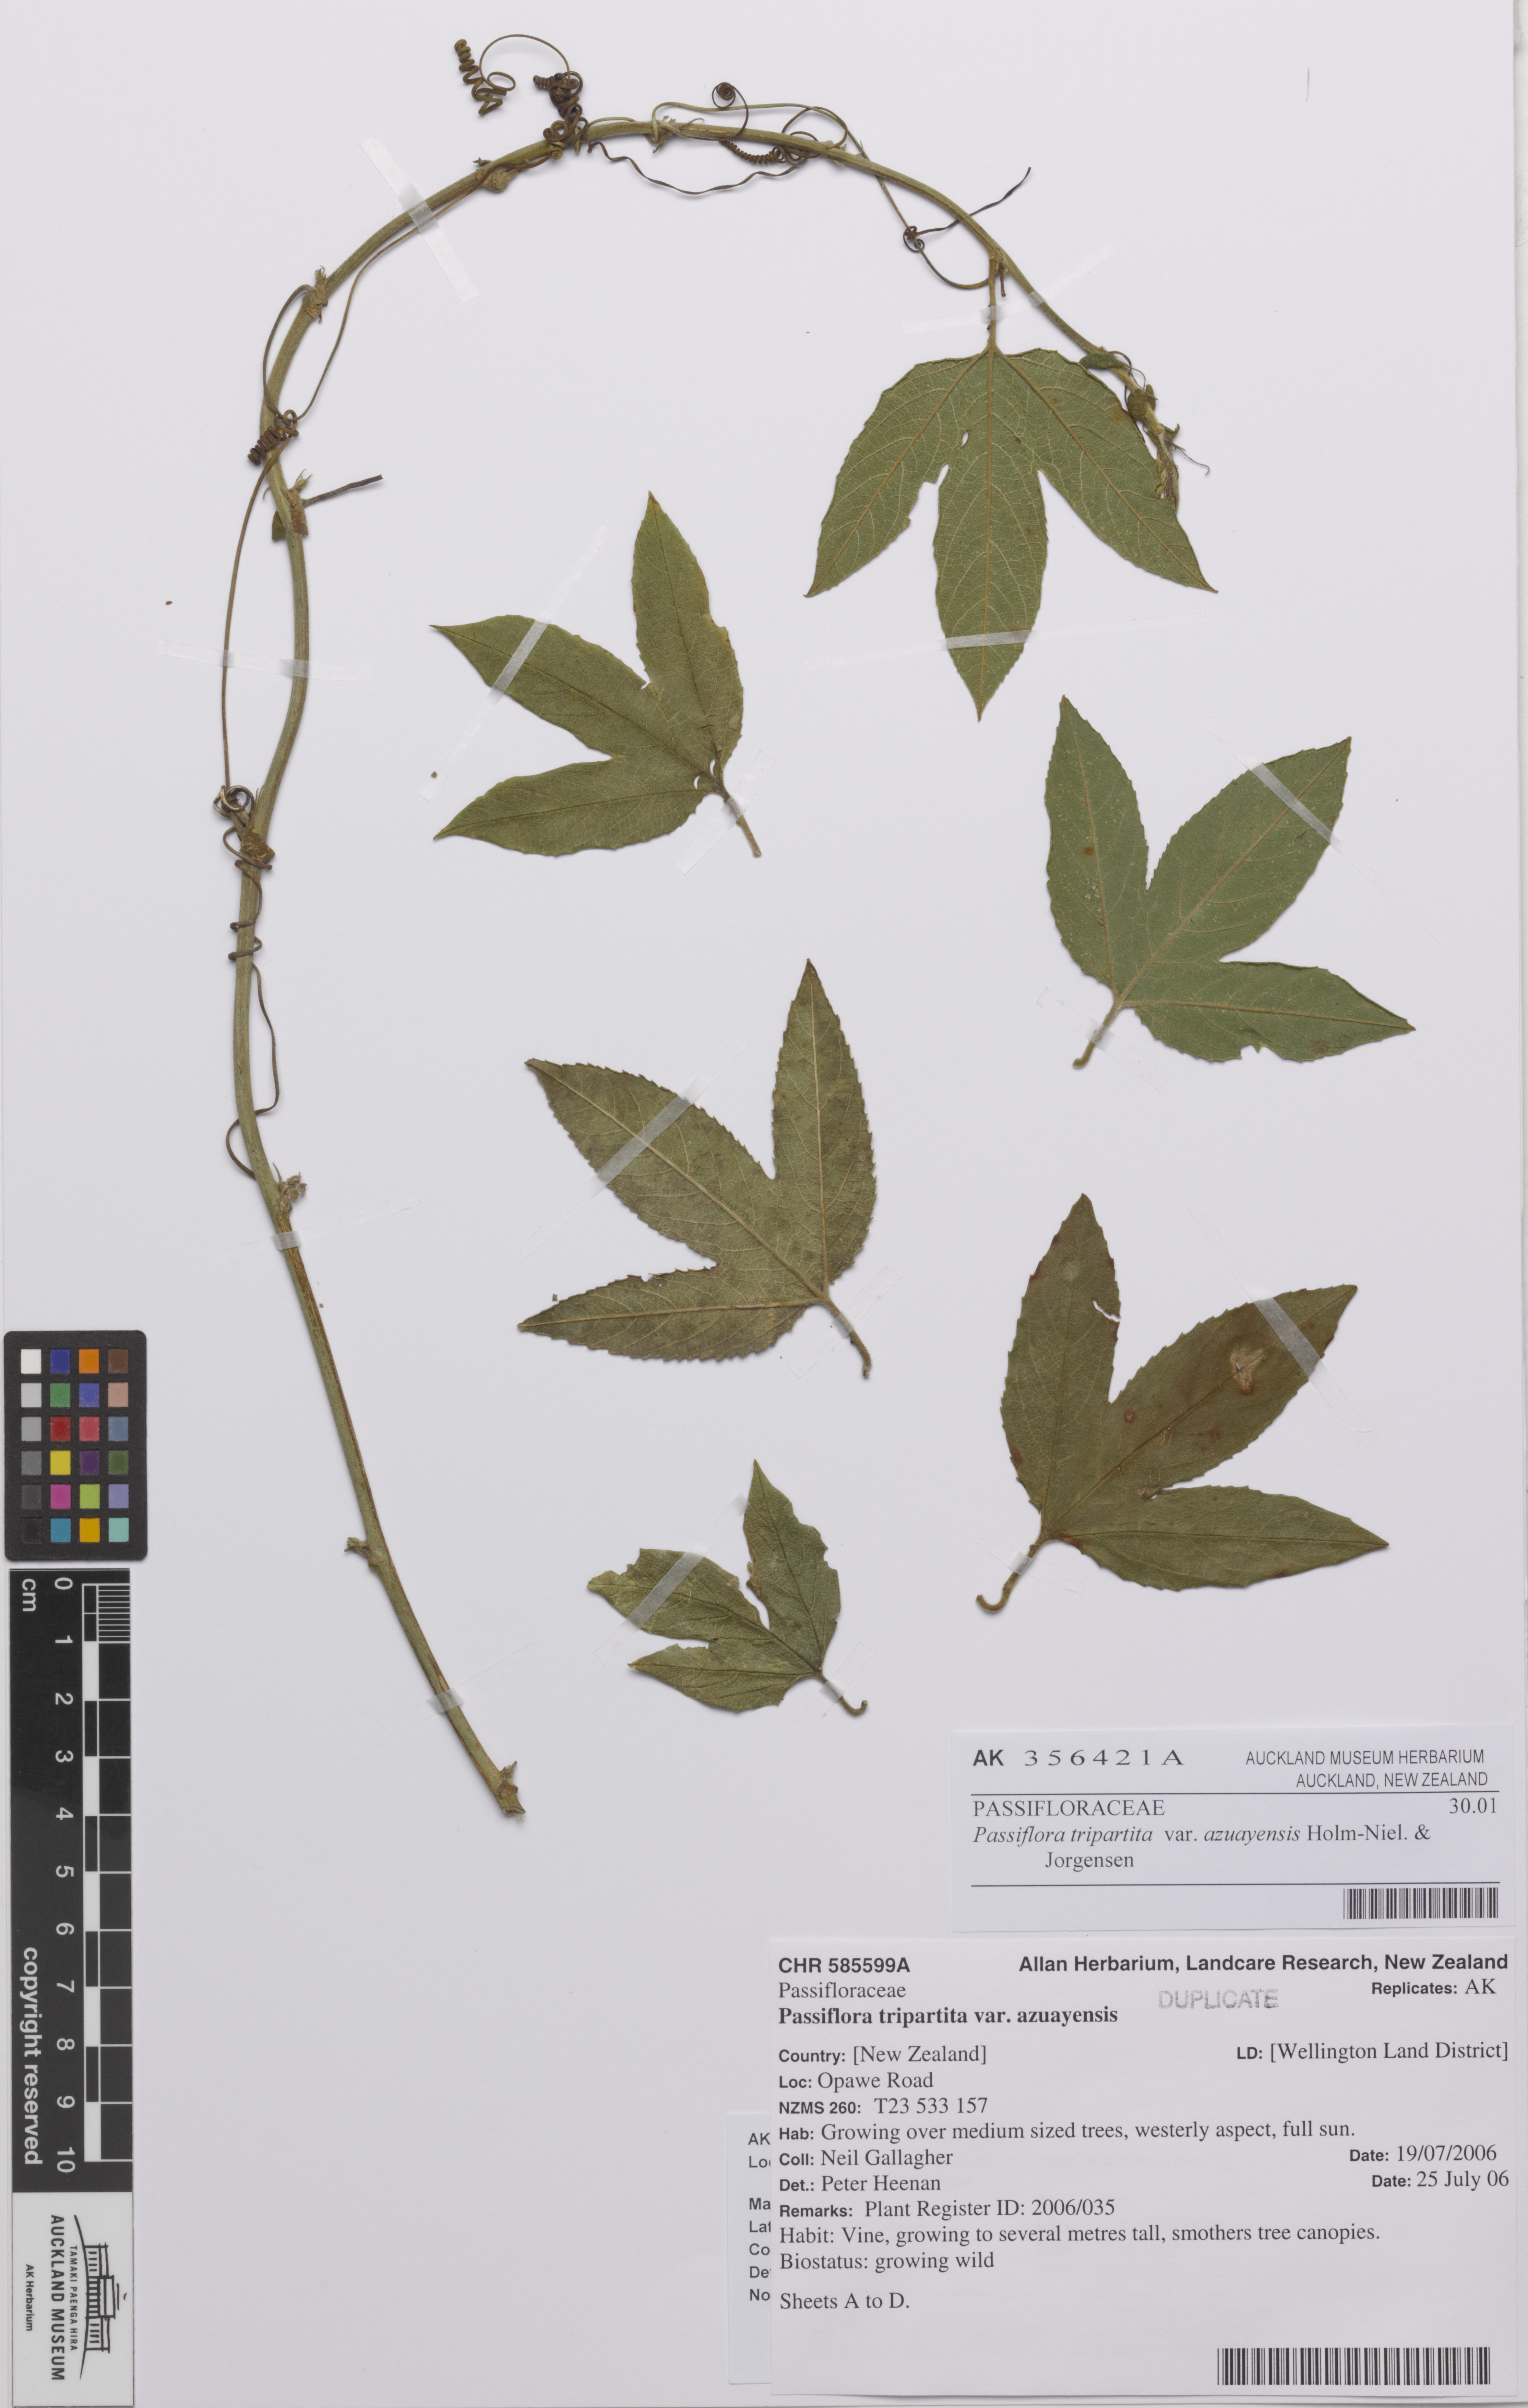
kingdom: Plantae
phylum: Tracheophyta
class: Magnoliopsida
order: Malpighiales
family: Passifloraceae
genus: Passiflora
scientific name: Passiflora tripartita
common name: Banana poka
